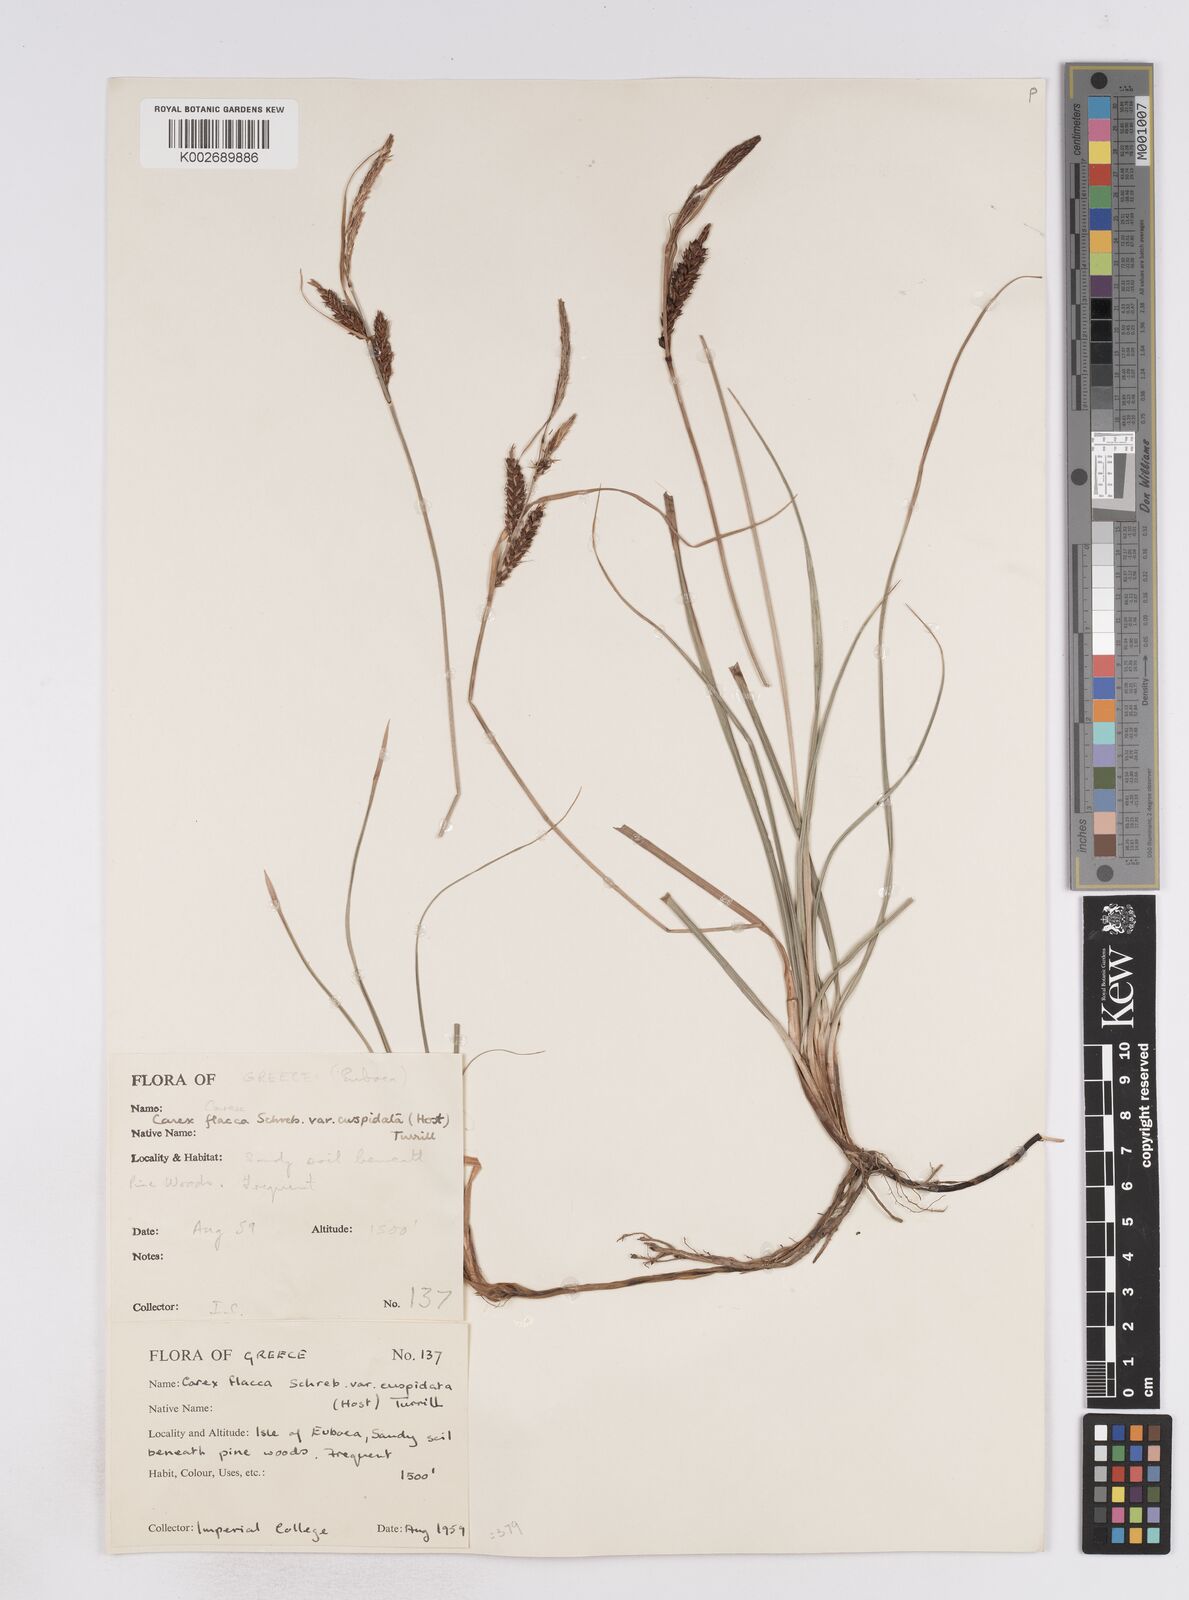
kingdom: Plantae
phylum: Tracheophyta
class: Liliopsida
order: Poales
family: Cyperaceae
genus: Carex
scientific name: Carex flacca
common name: Glaucous sedge
